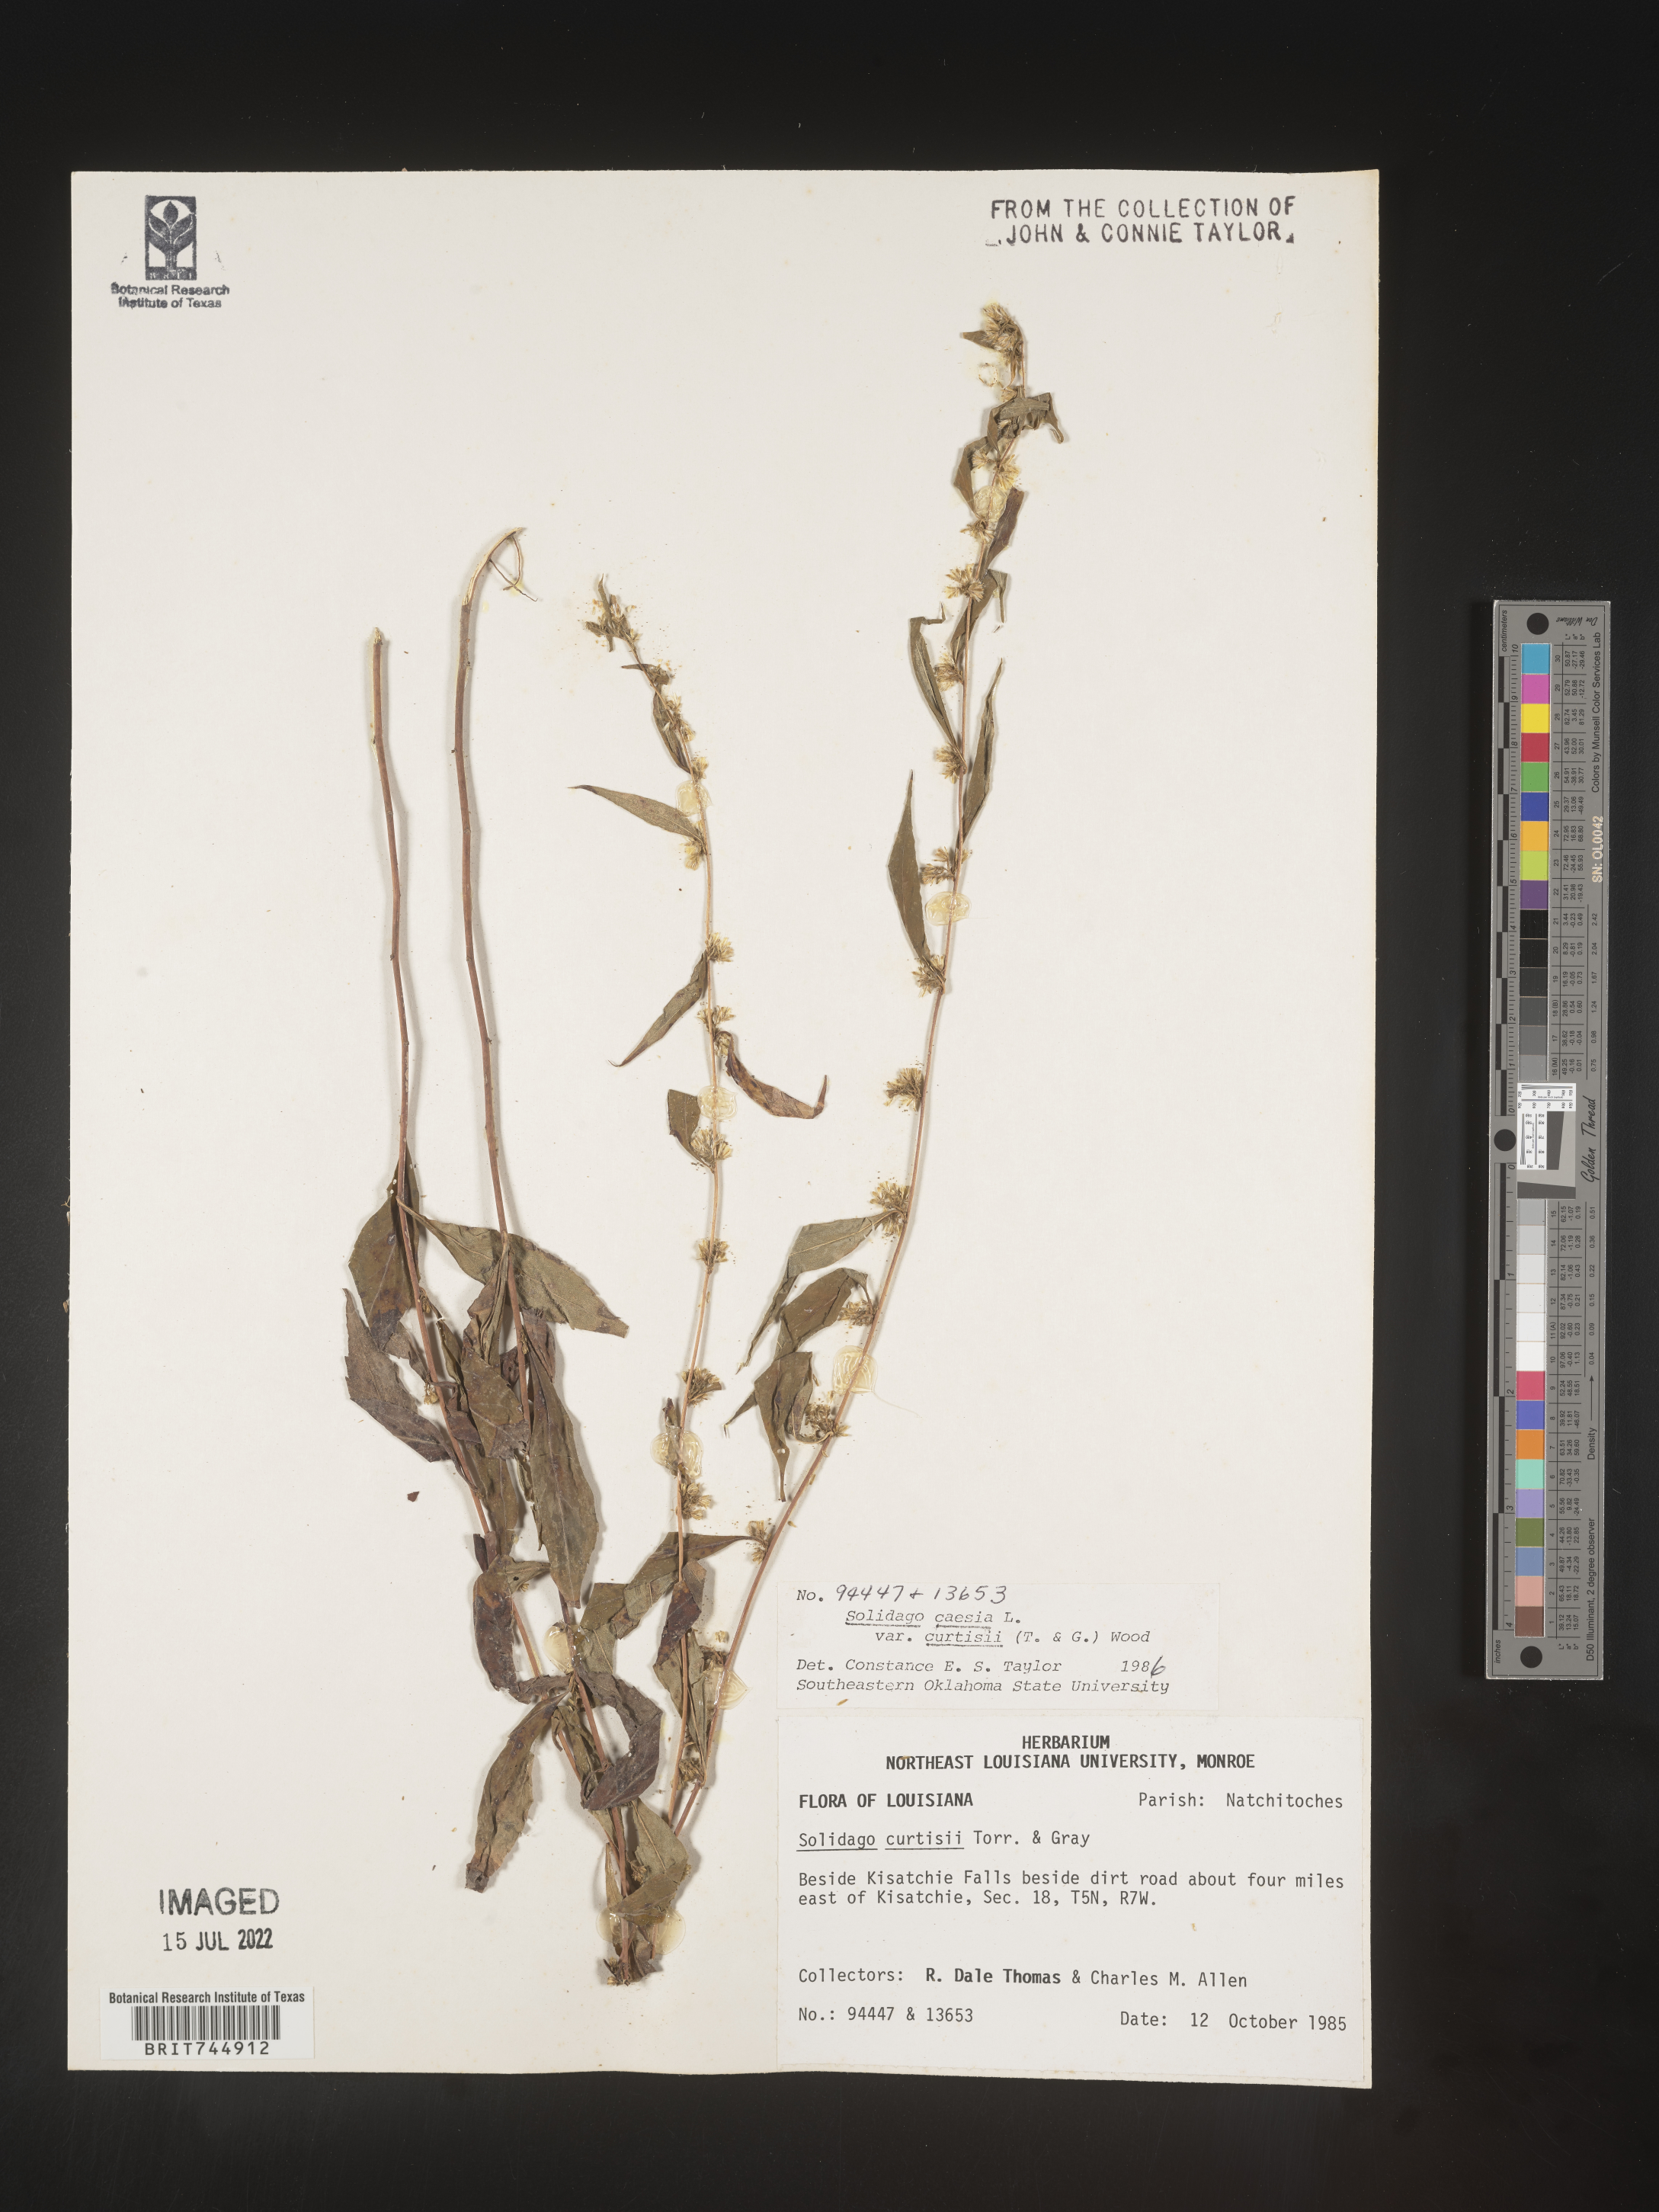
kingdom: Plantae
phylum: Tracheophyta
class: Magnoliopsida
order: Asterales
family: Asteraceae
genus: Solidago
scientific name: Solidago curtisii
